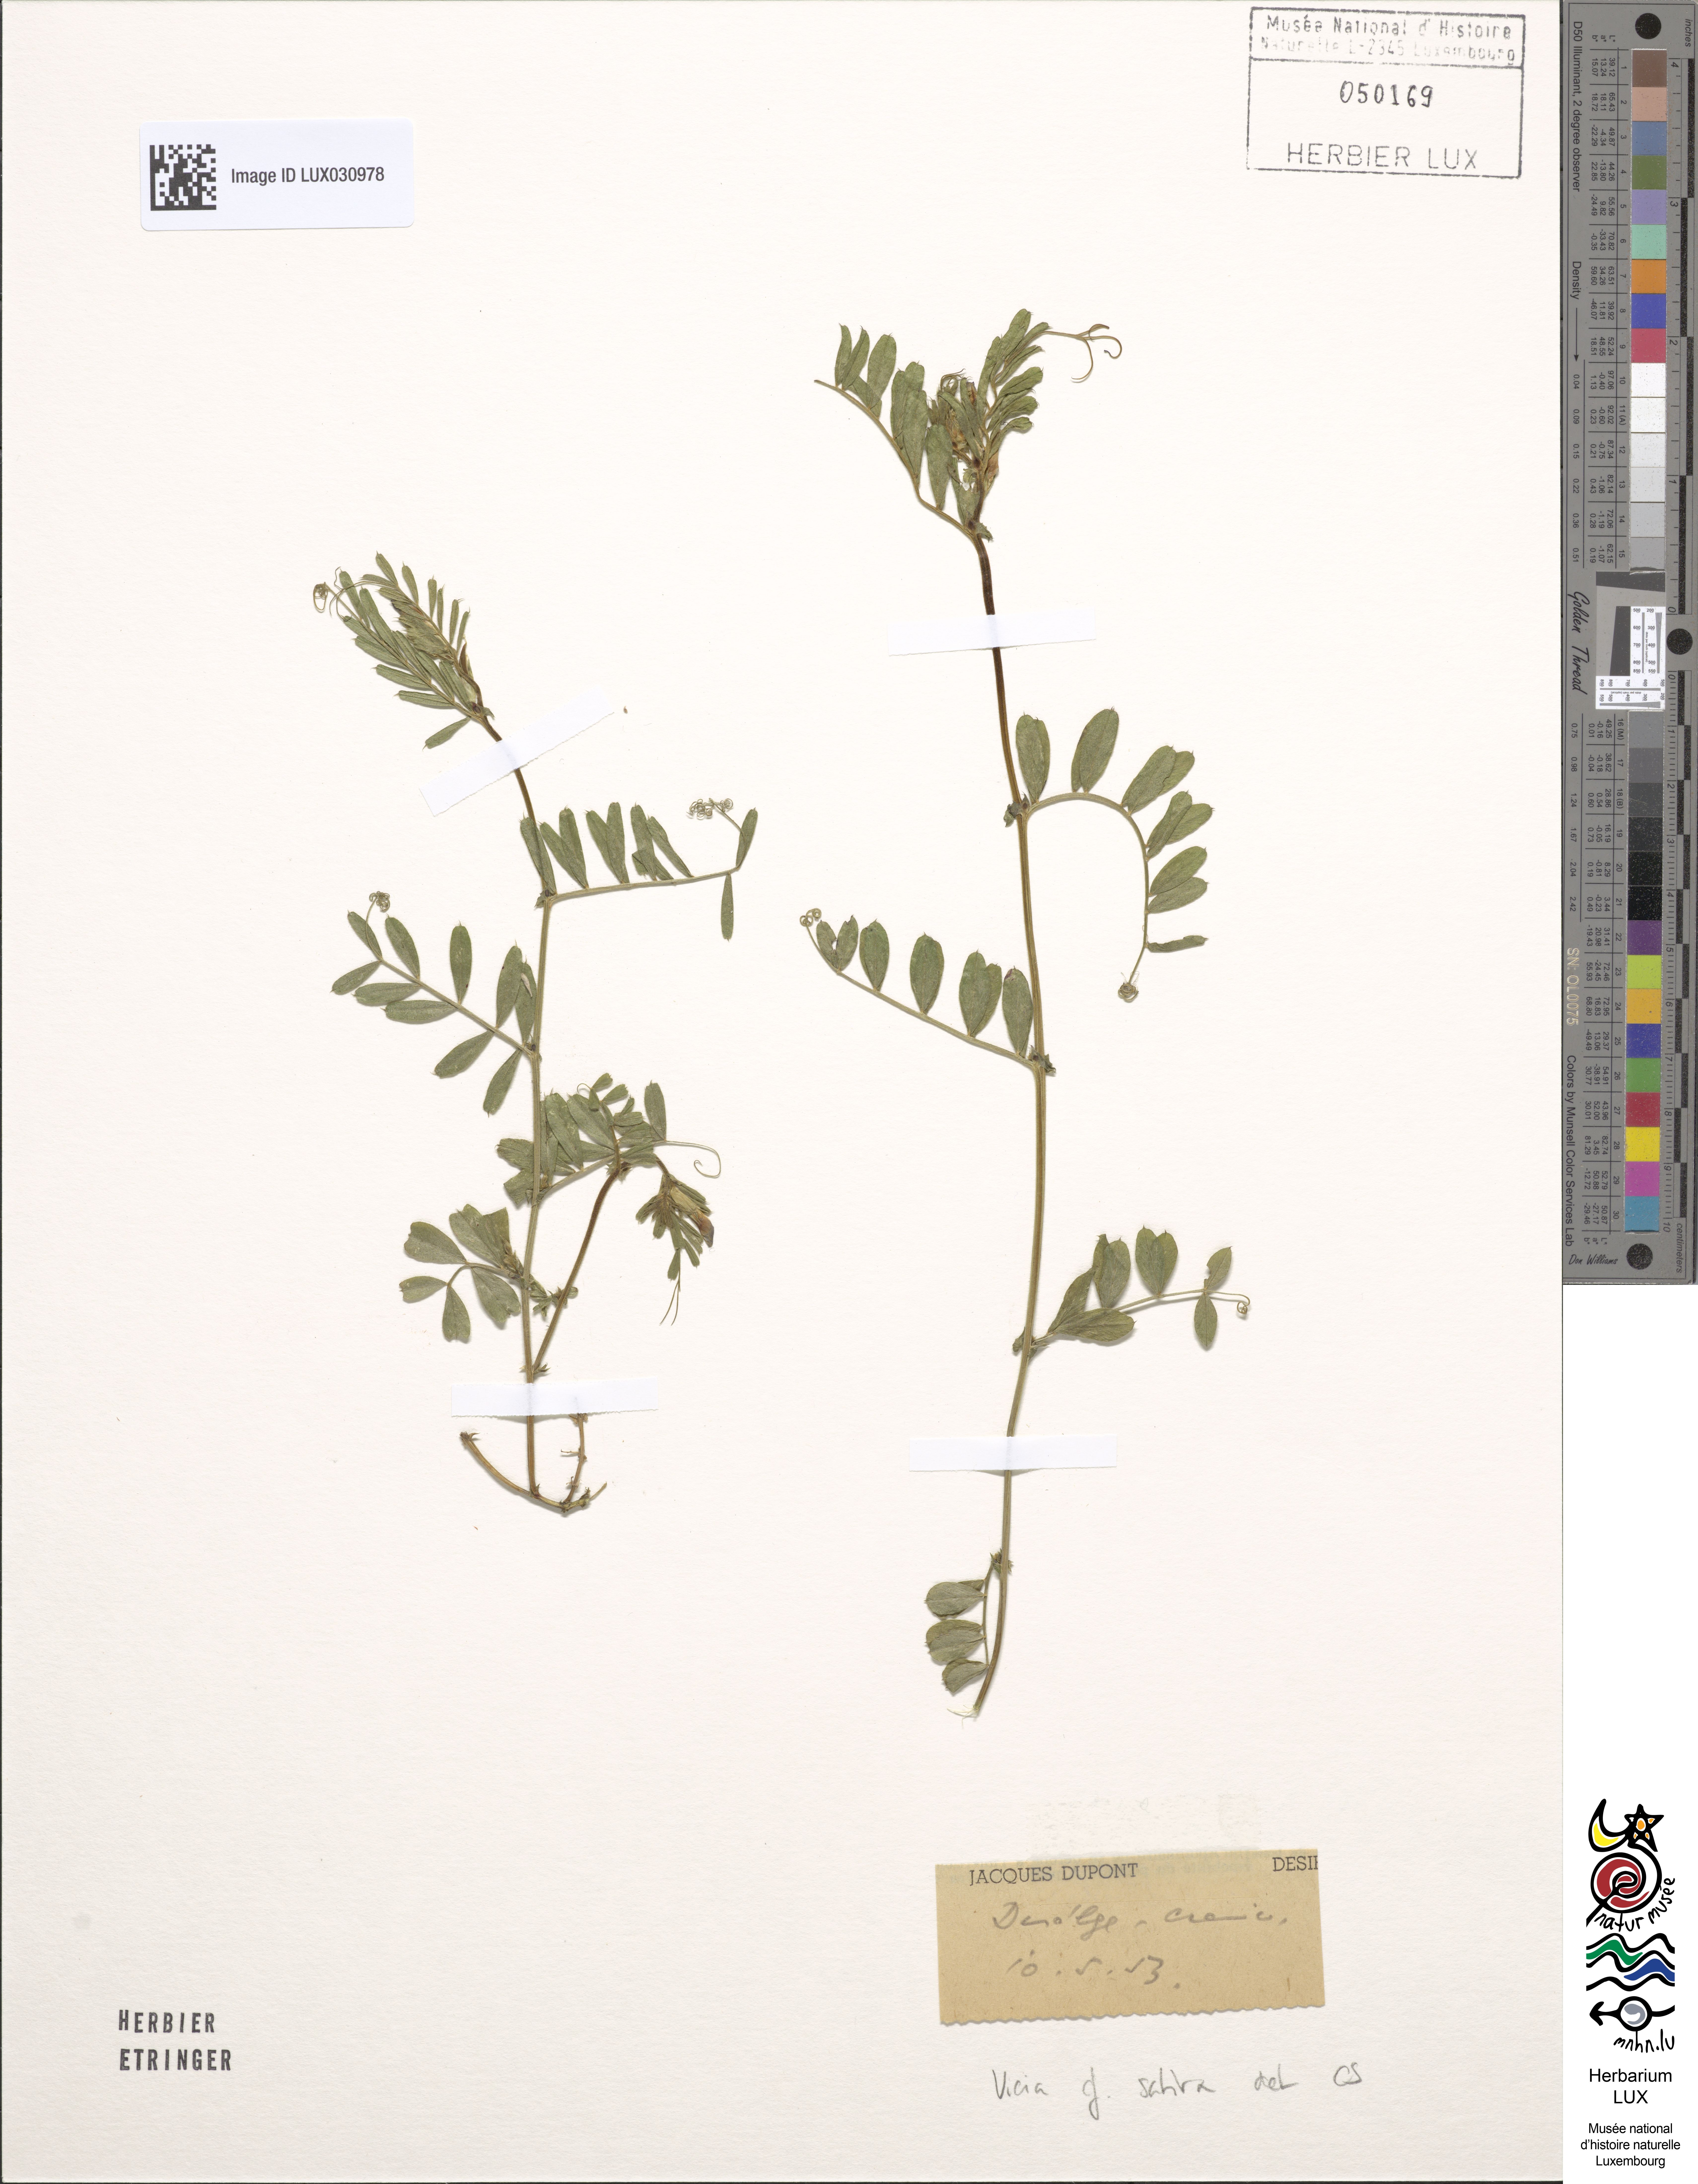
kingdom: Plantae
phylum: Tracheophyta
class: Magnoliopsida
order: Fabales
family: Fabaceae
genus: Vicia
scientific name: Vicia sativa
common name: Garden vetch
